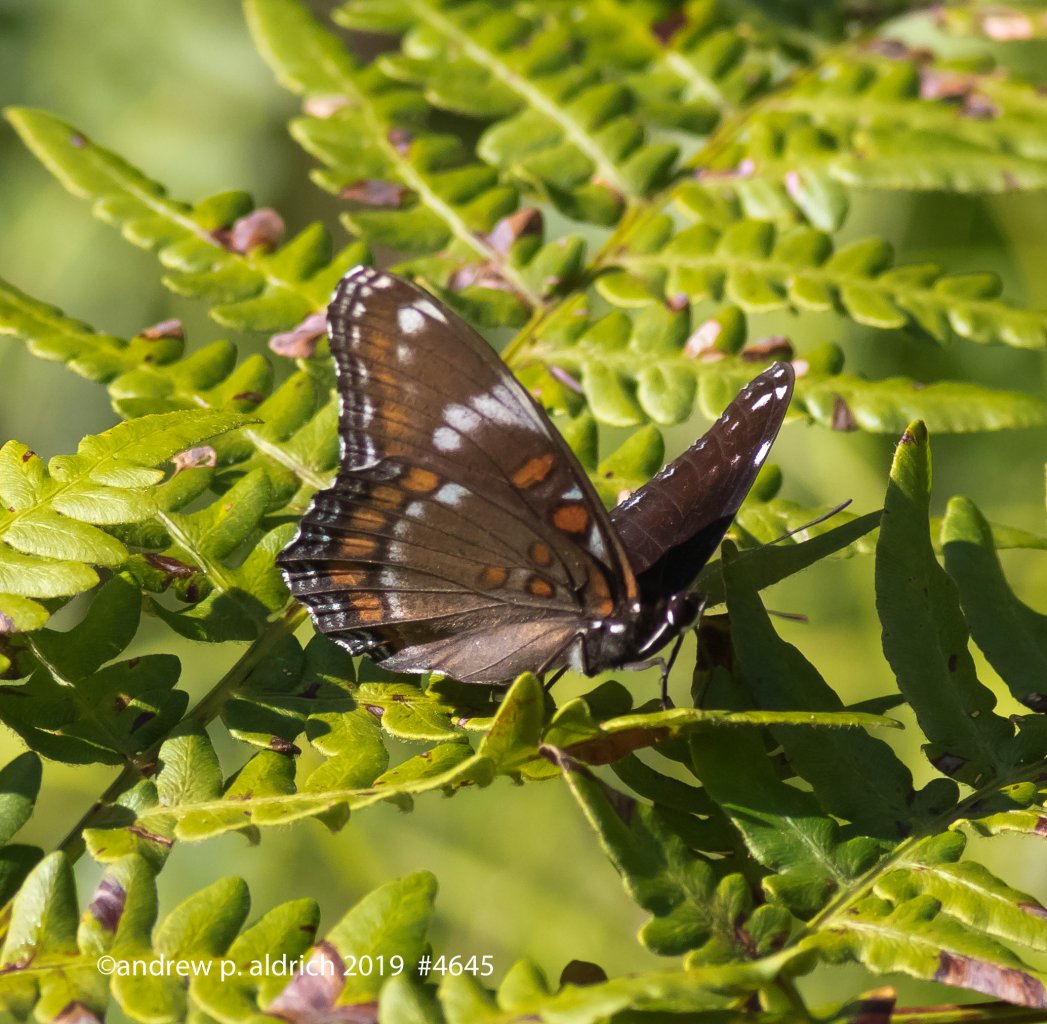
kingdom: Animalia
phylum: Arthropoda
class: Insecta
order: Lepidoptera
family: Nymphalidae
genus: Limenitis
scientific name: Limenitis
